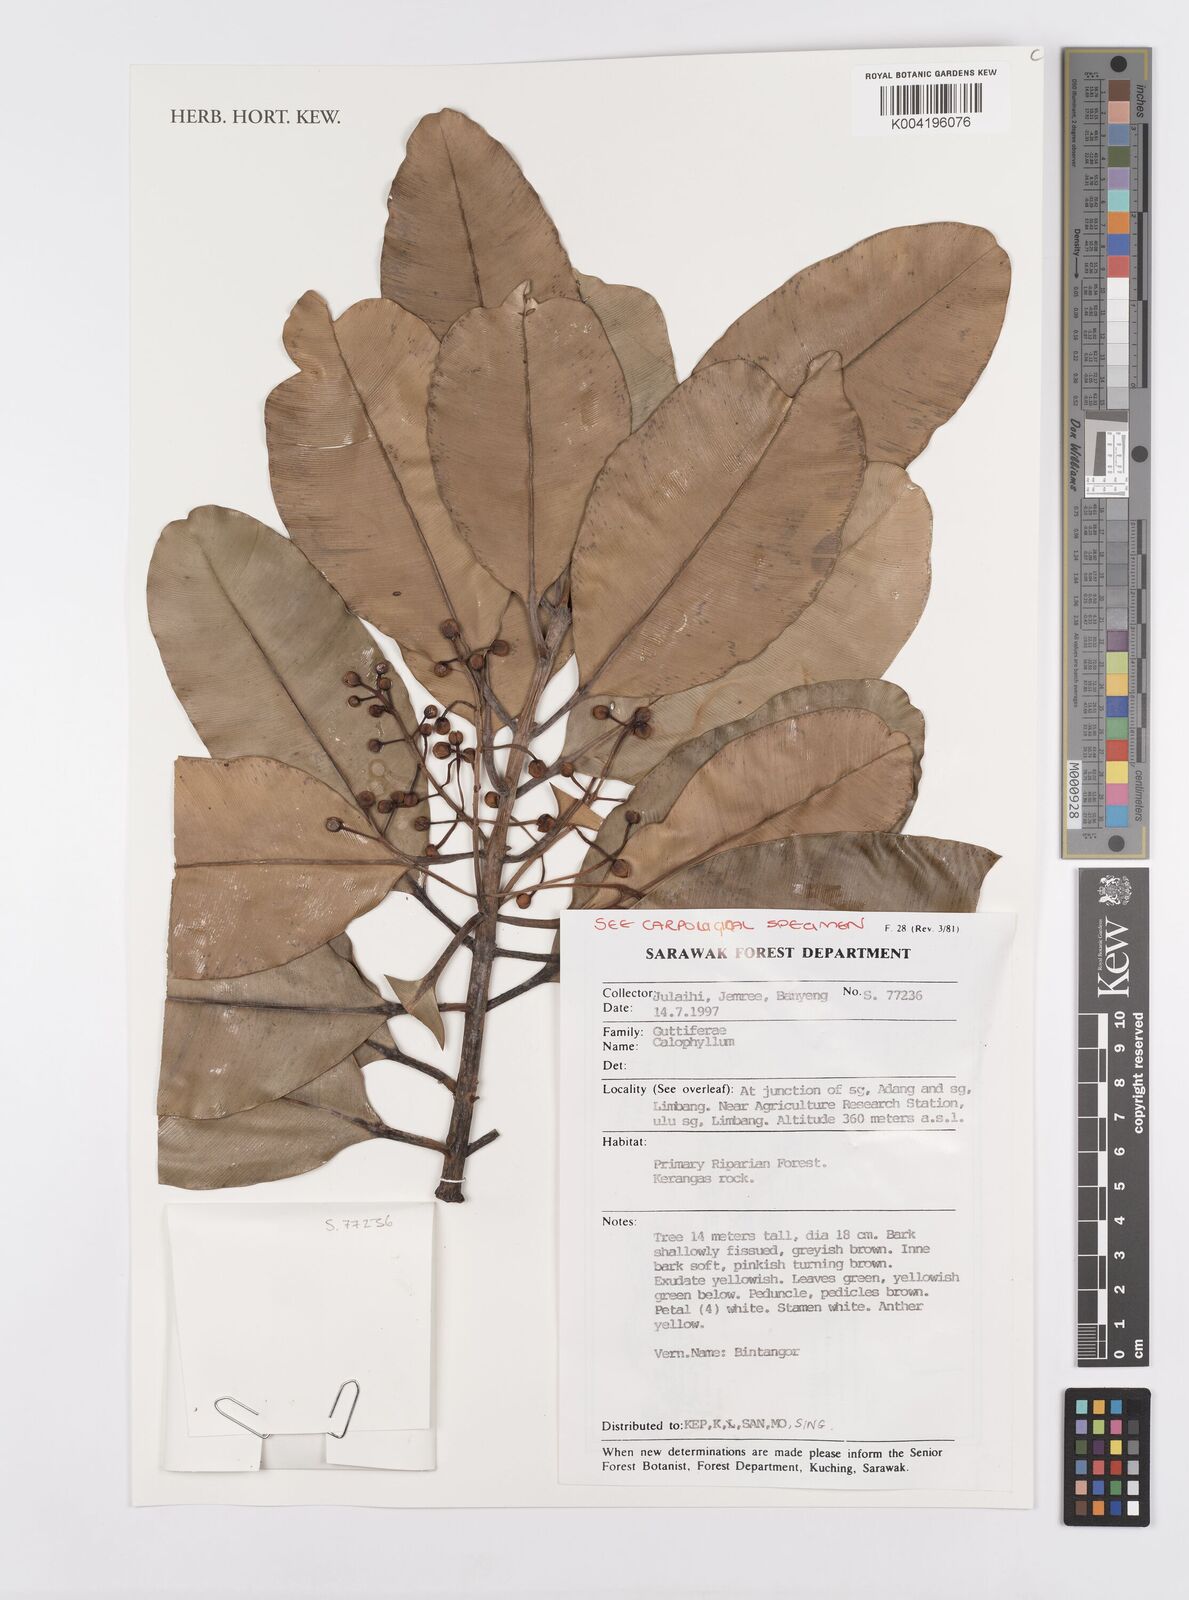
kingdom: Plantae
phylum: Tracheophyta
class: Magnoliopsida
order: Malpighiales
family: Calophyllaceae
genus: Calophyllum
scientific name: Calophyllum
